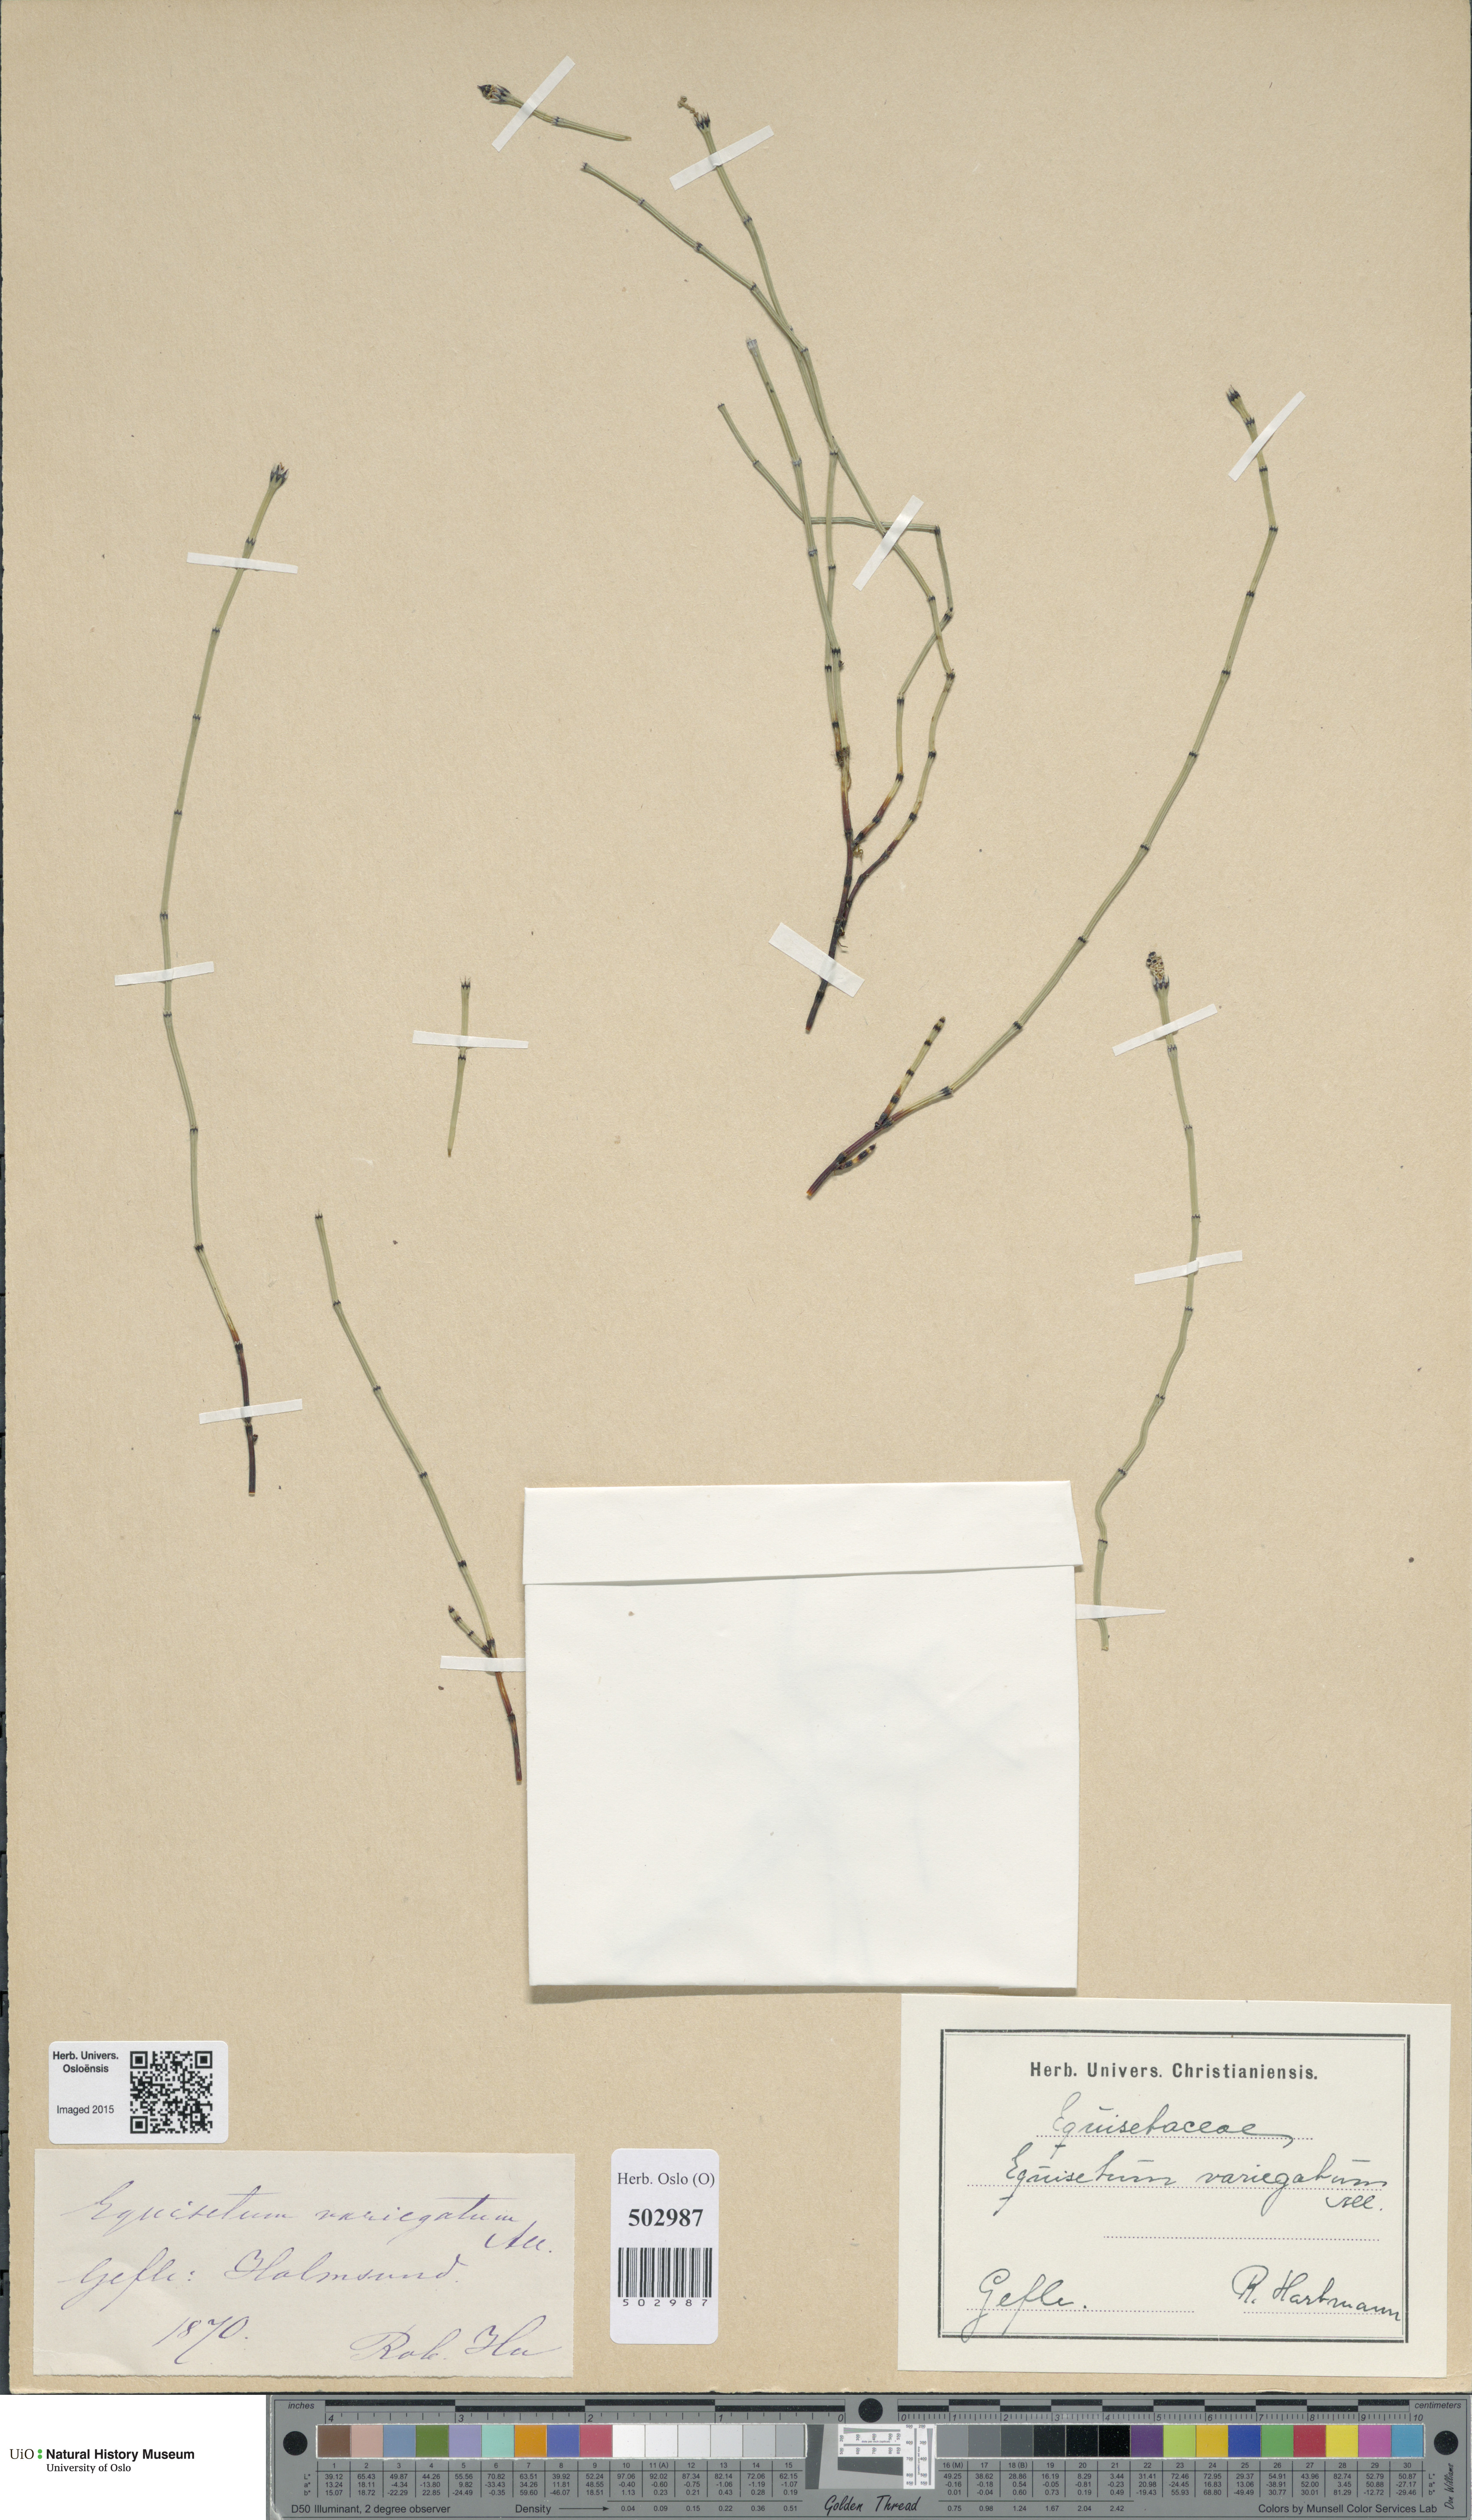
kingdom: Plantae
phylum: Tracheophyta
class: Polypodiopsida
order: Equisetales
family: Equisetaceae
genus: Equisetum
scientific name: Equisetum variegatum
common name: Variegated horsetail
